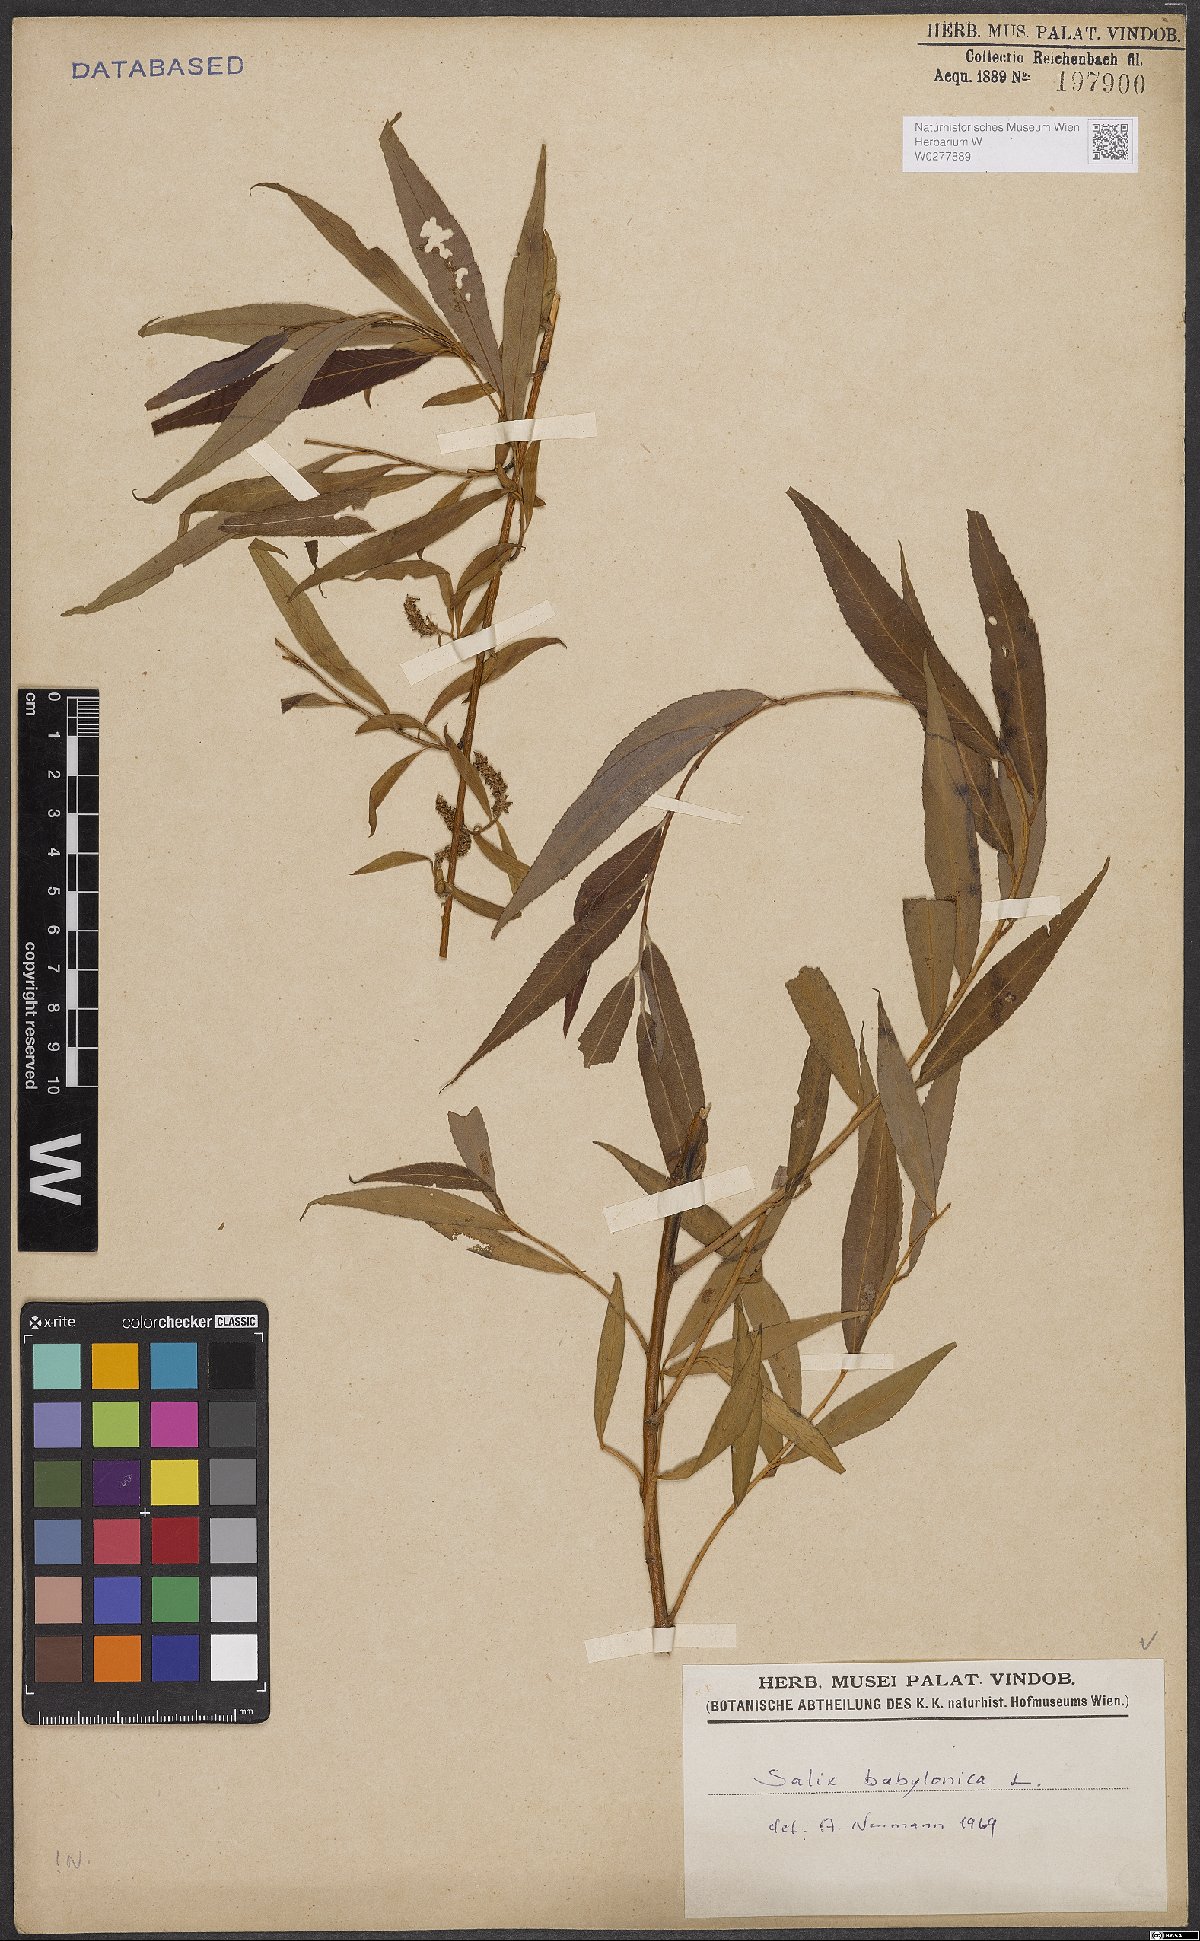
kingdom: Plantae
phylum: Tracheophyta
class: Magnoliopsida
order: Malpighiales
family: Salicaceae
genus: Salix
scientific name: Salix babylonica
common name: Weeping willow
